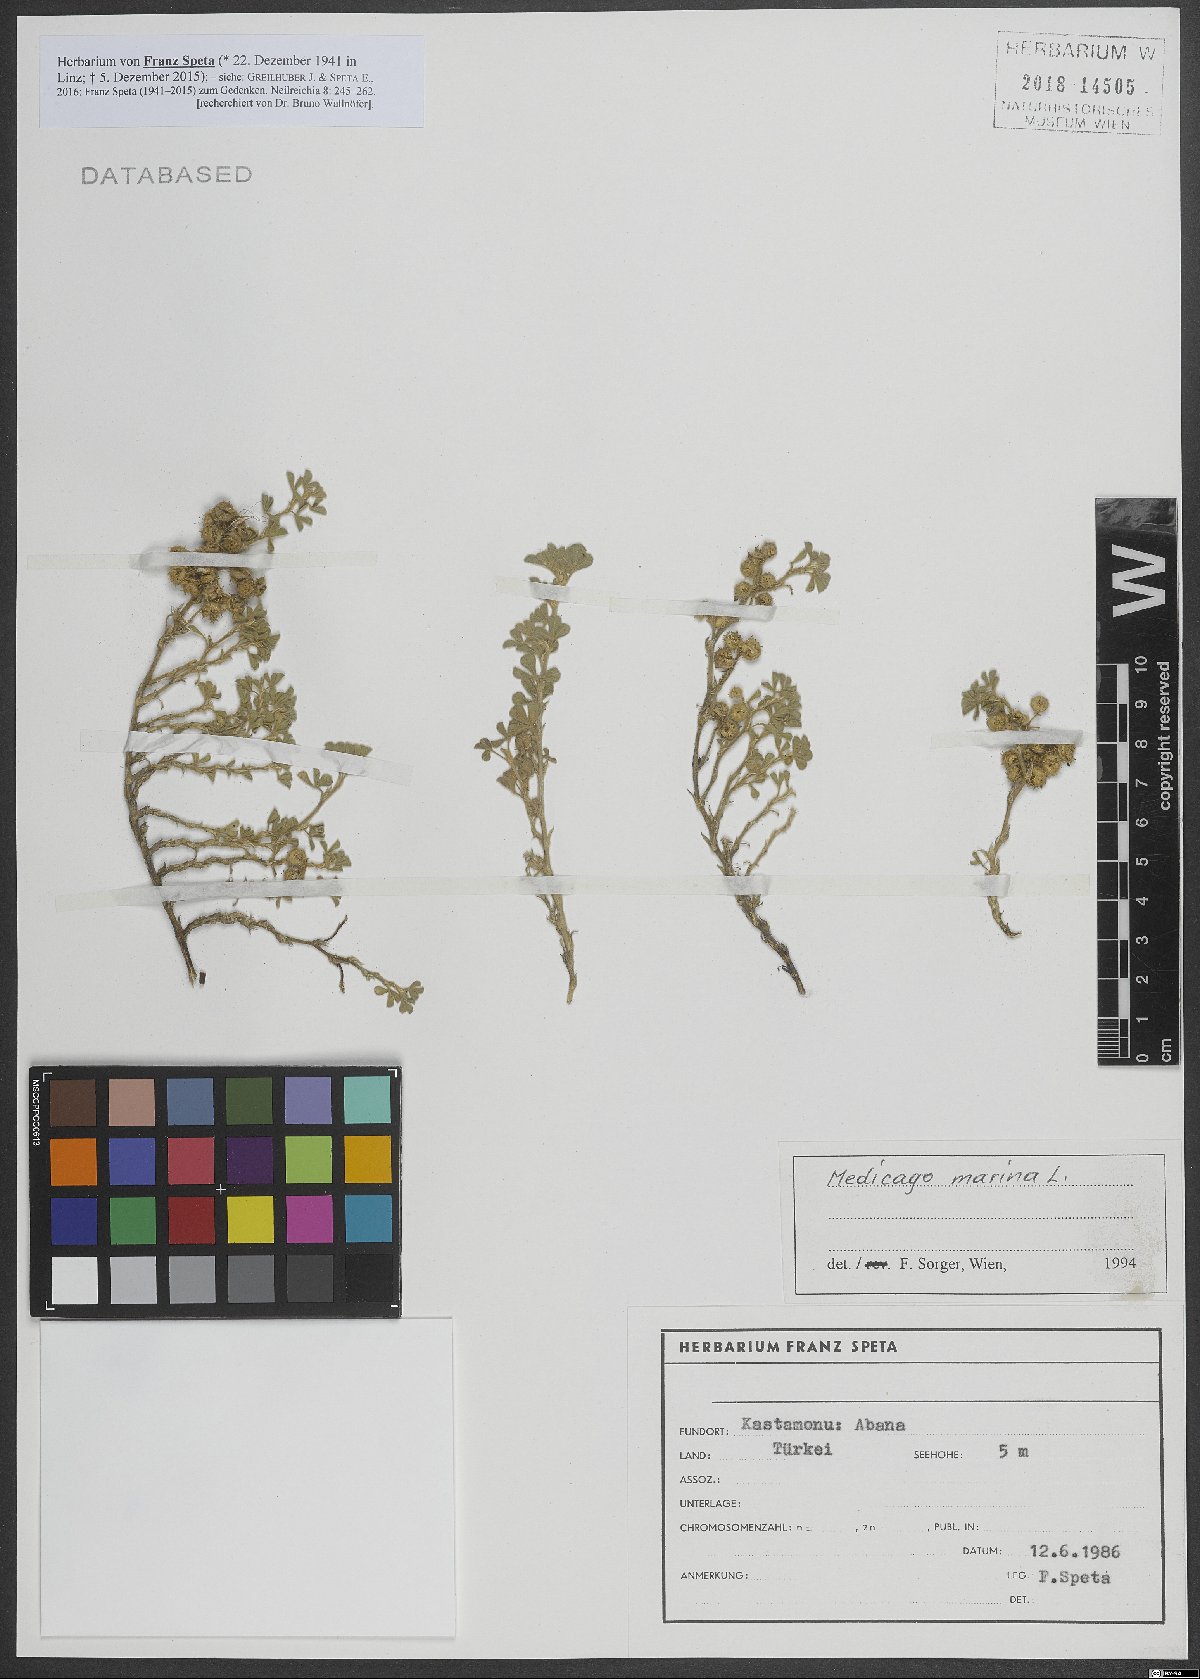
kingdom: Plantae
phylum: Tracheophyta
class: Magnoliopsida
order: Fabales
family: Fabaceae
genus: Medicago
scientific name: Medicago marina
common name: Sea medick
